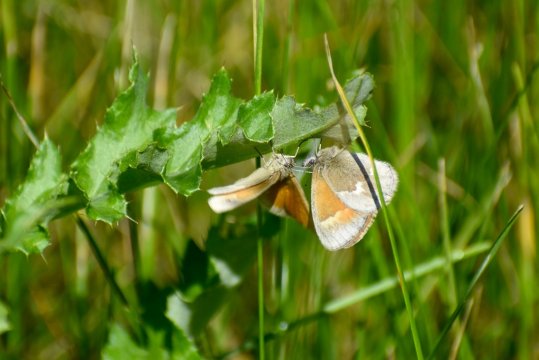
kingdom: Animalia
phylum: Arthropoda
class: Insecta
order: Lepidoptera
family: Nymphalidae
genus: Coenonympha
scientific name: Coenonympha california
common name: California Ringlet
